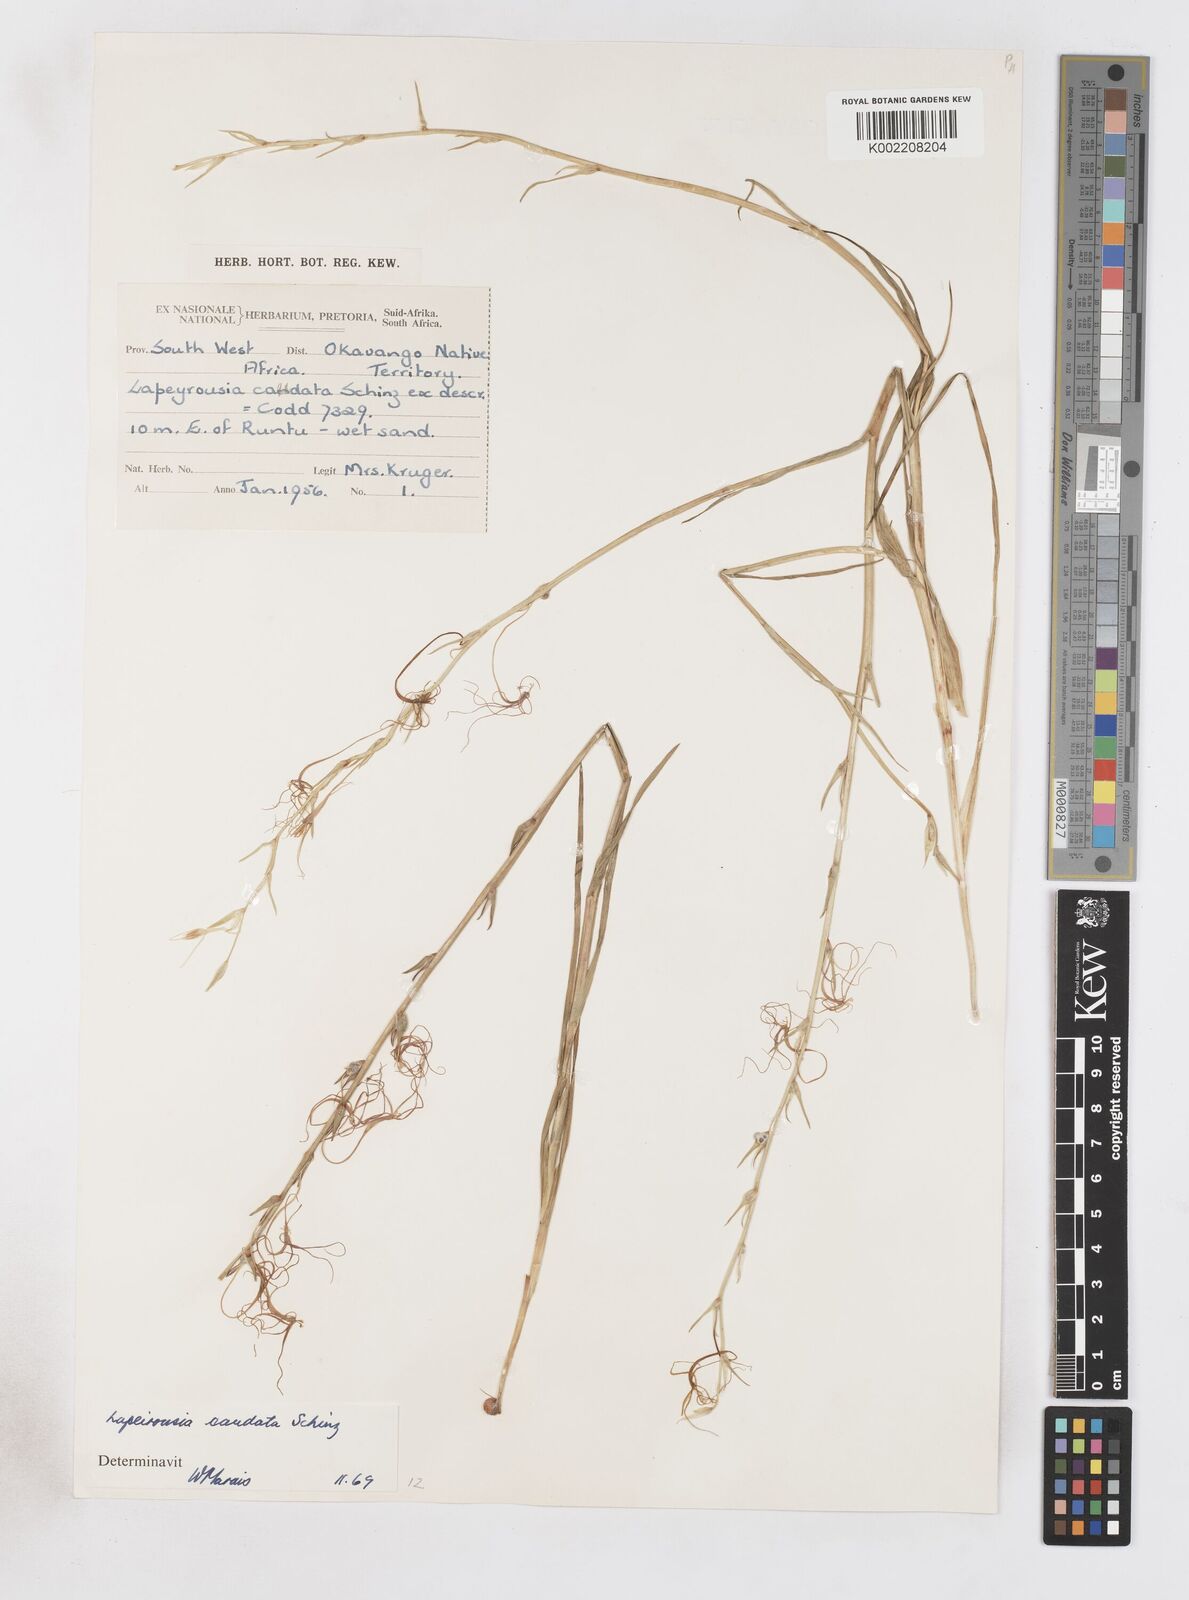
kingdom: Plantae
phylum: Tracheophyta
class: Liliopsida
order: Asparagales
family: Iridaceae
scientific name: Iridaceae
